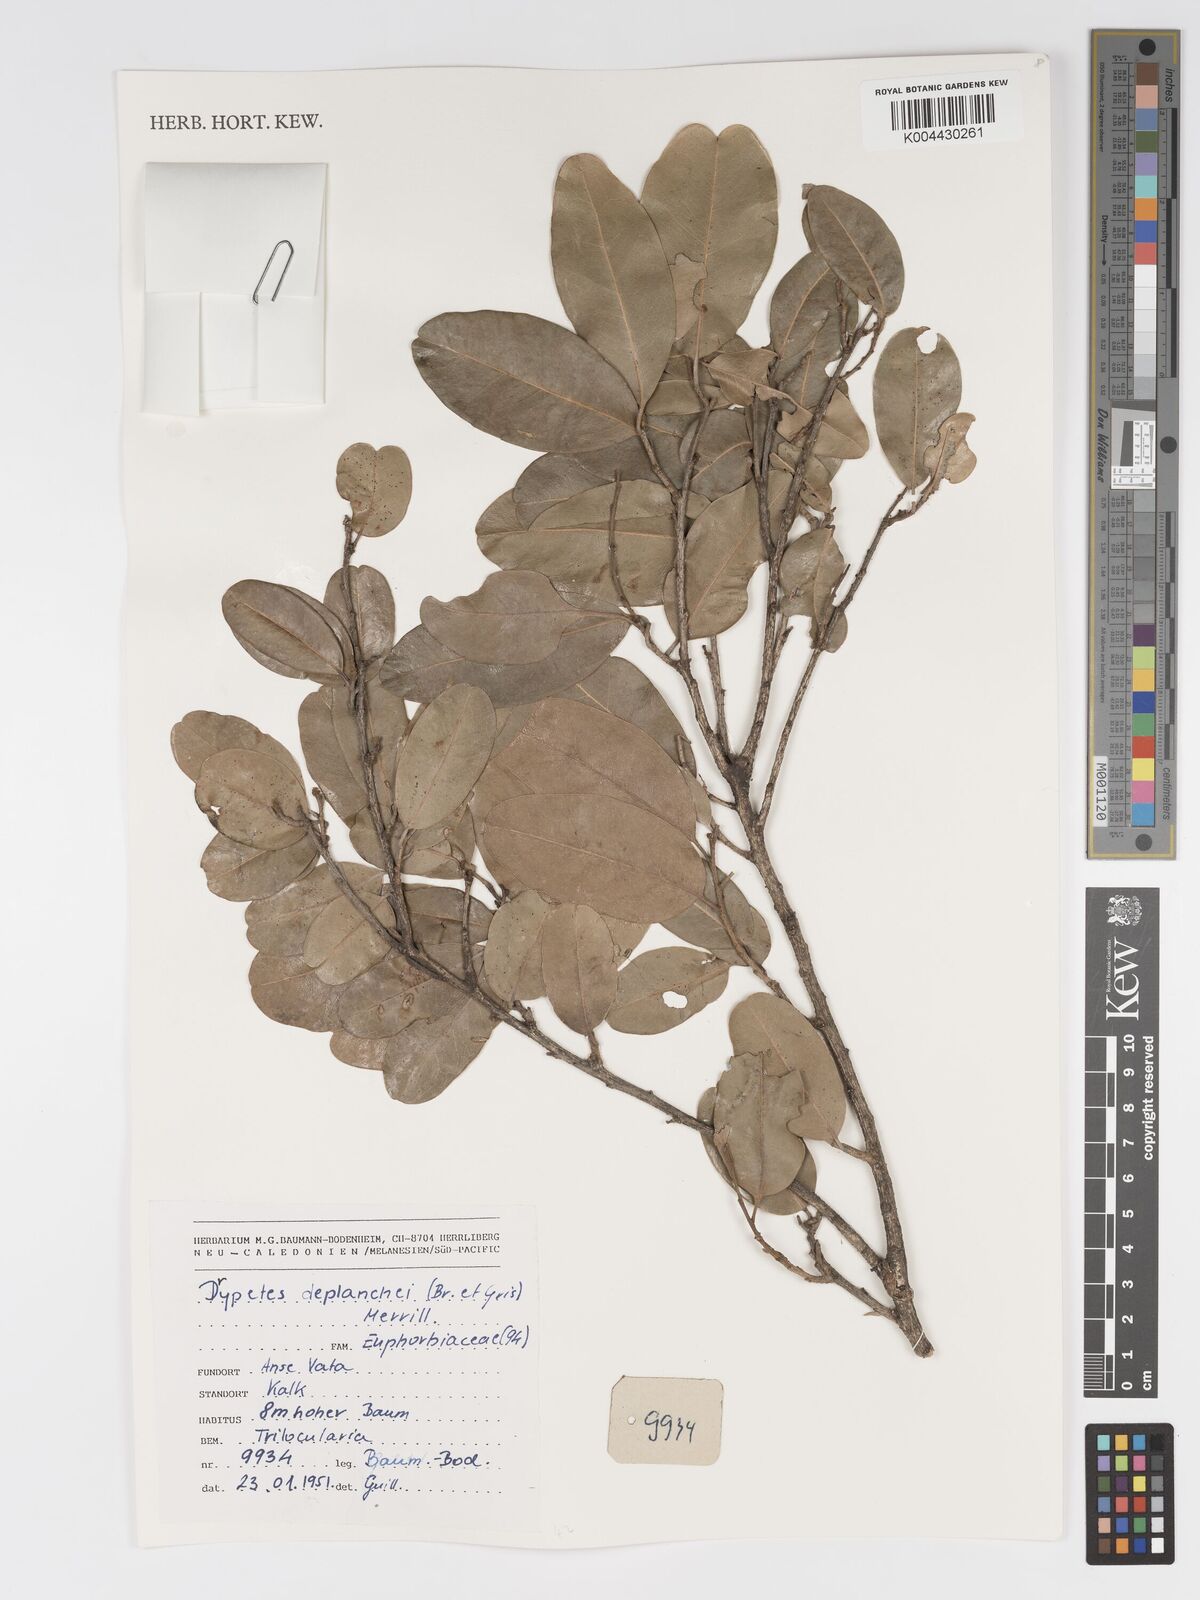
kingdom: Plantae
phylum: Tracheophyta
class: Magnoliopsida
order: Malpighiales
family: Putranjivaceae
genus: Drypetes
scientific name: Drypetes deplanchei
